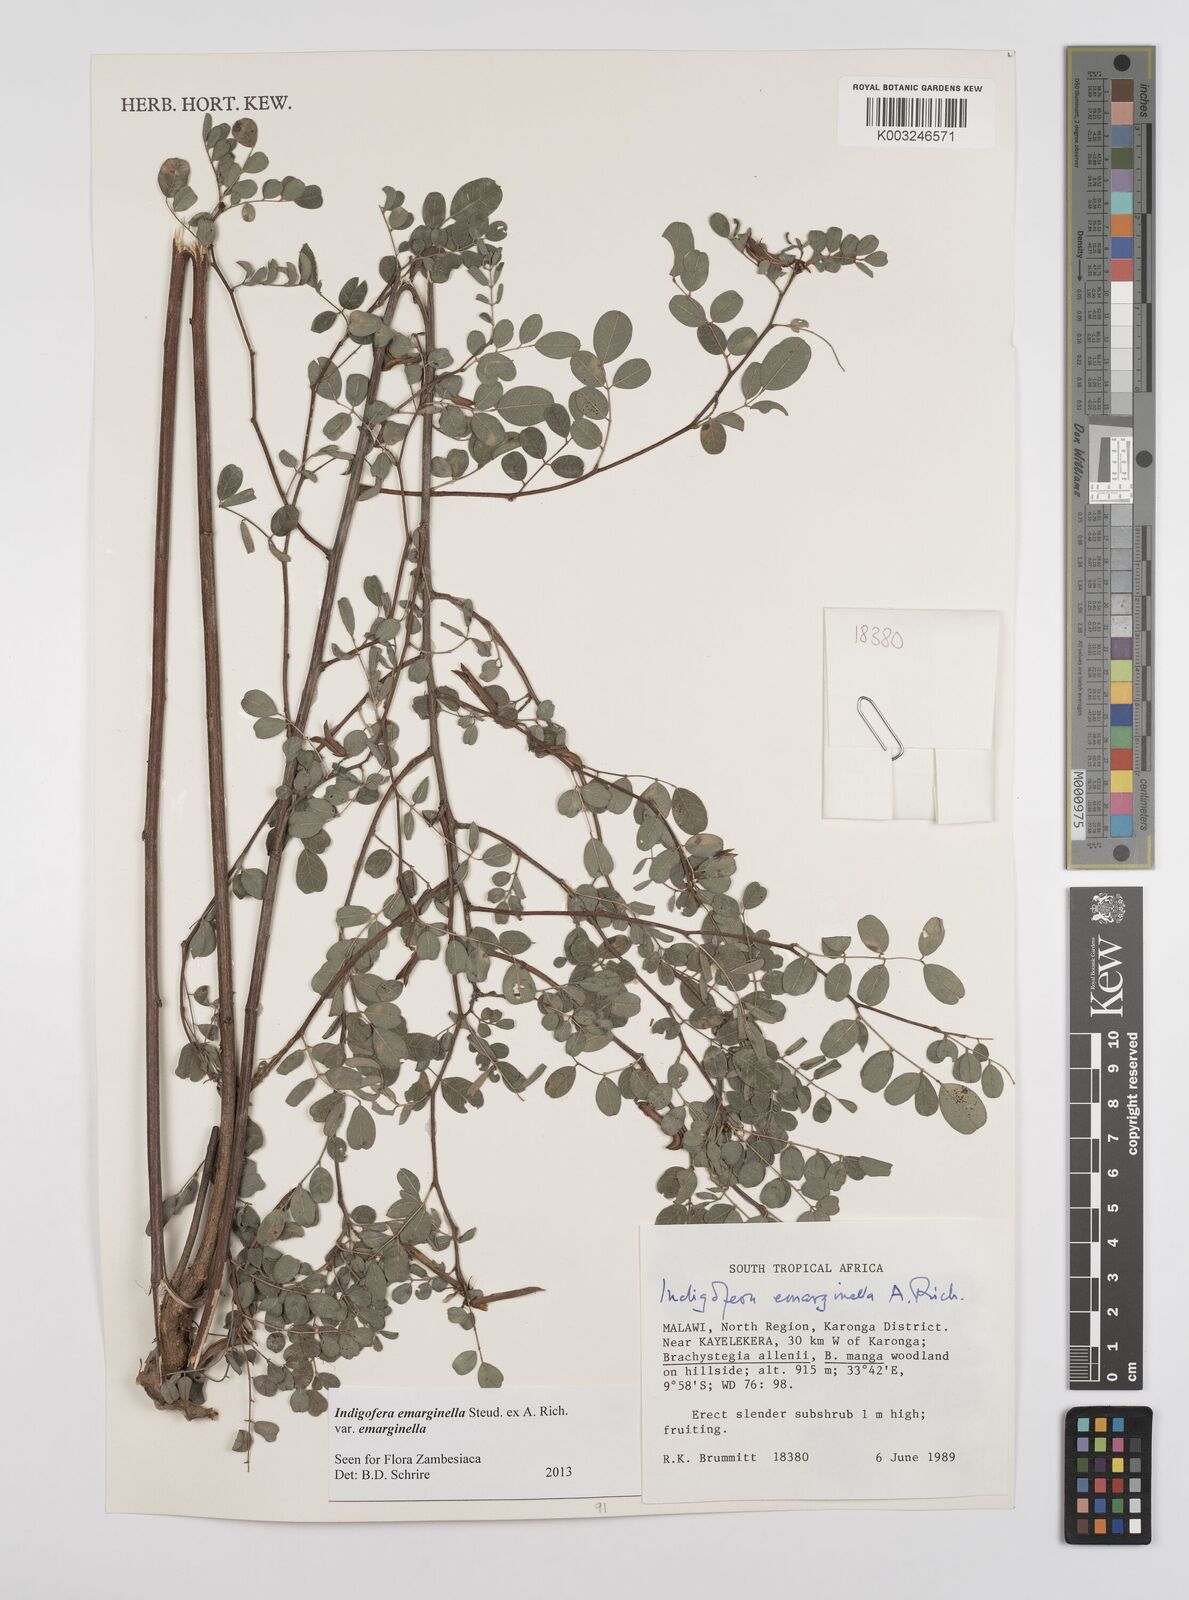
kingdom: Plantae
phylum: Tracheophyta
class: Magnoliopsida
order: Fabales
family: Fabaceae
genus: Indigofera
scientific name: Indigofera emarginella
